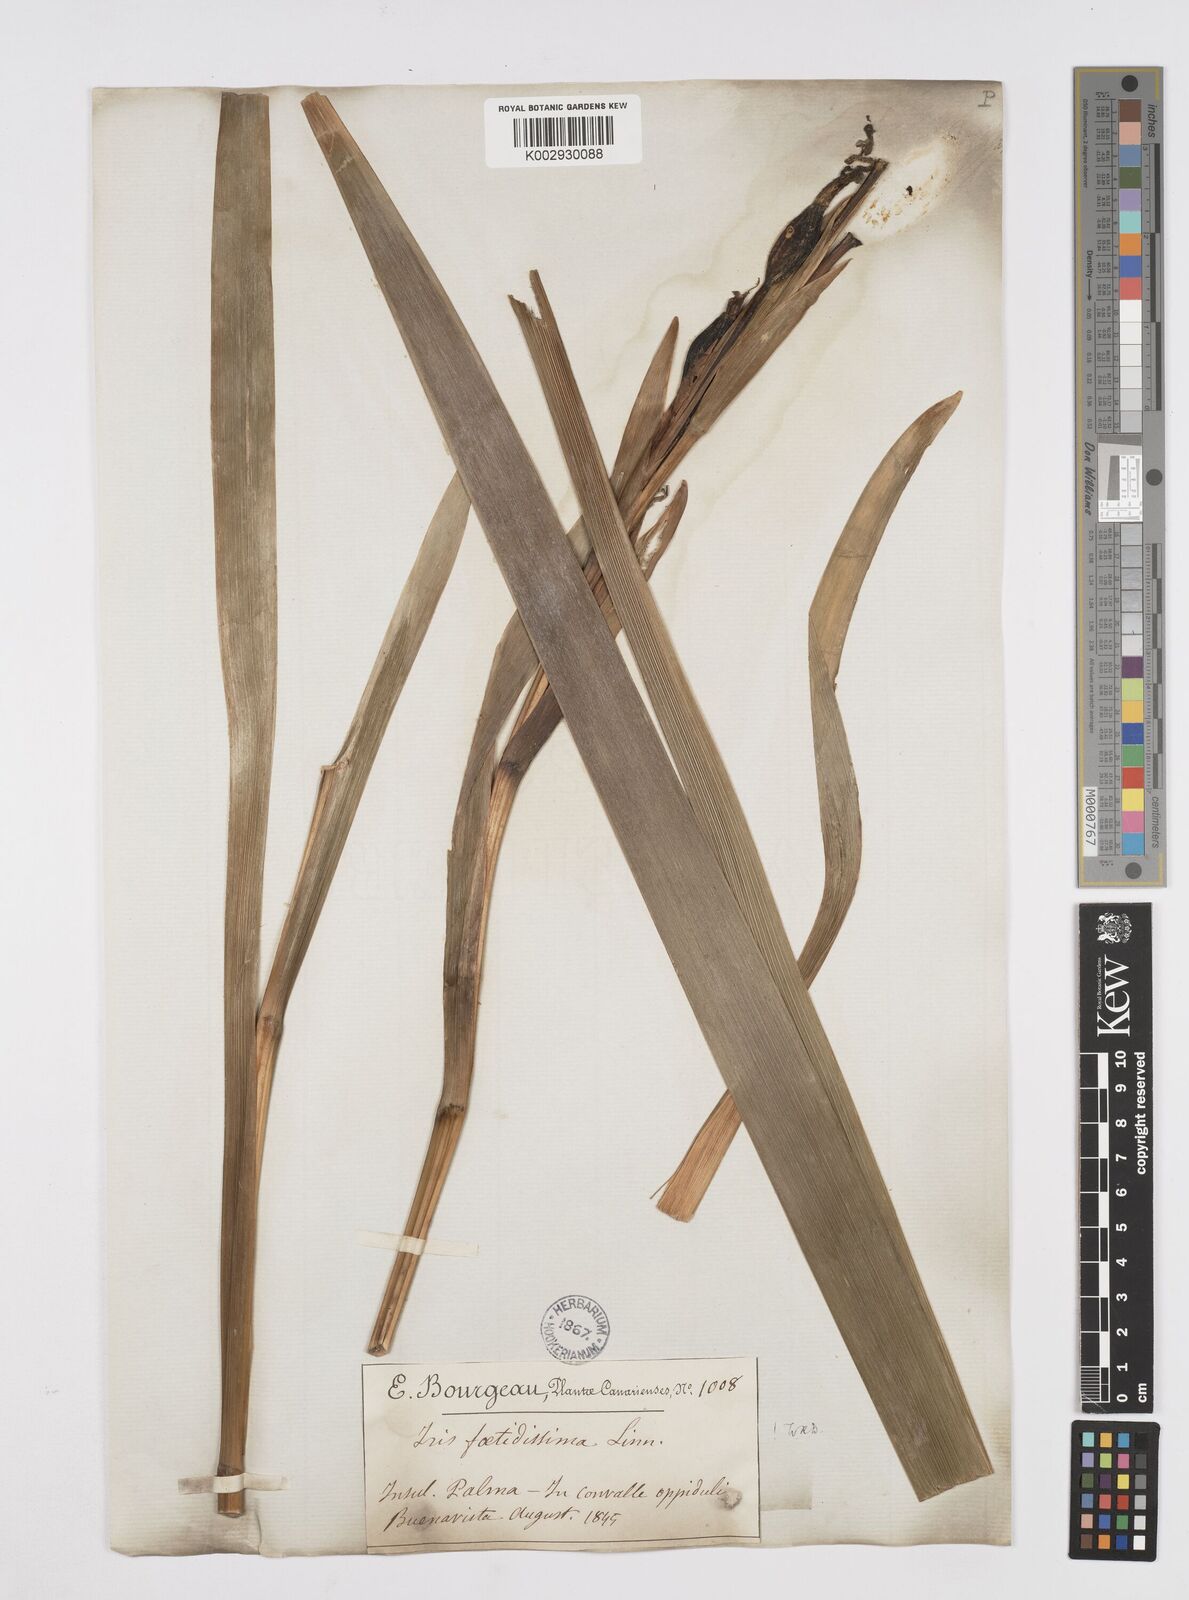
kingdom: Plantae
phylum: Tracheophyta
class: Liliopsida
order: Asparagales
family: Iridaceae
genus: Iris
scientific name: Iris foetidissima
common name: Stinking iris
